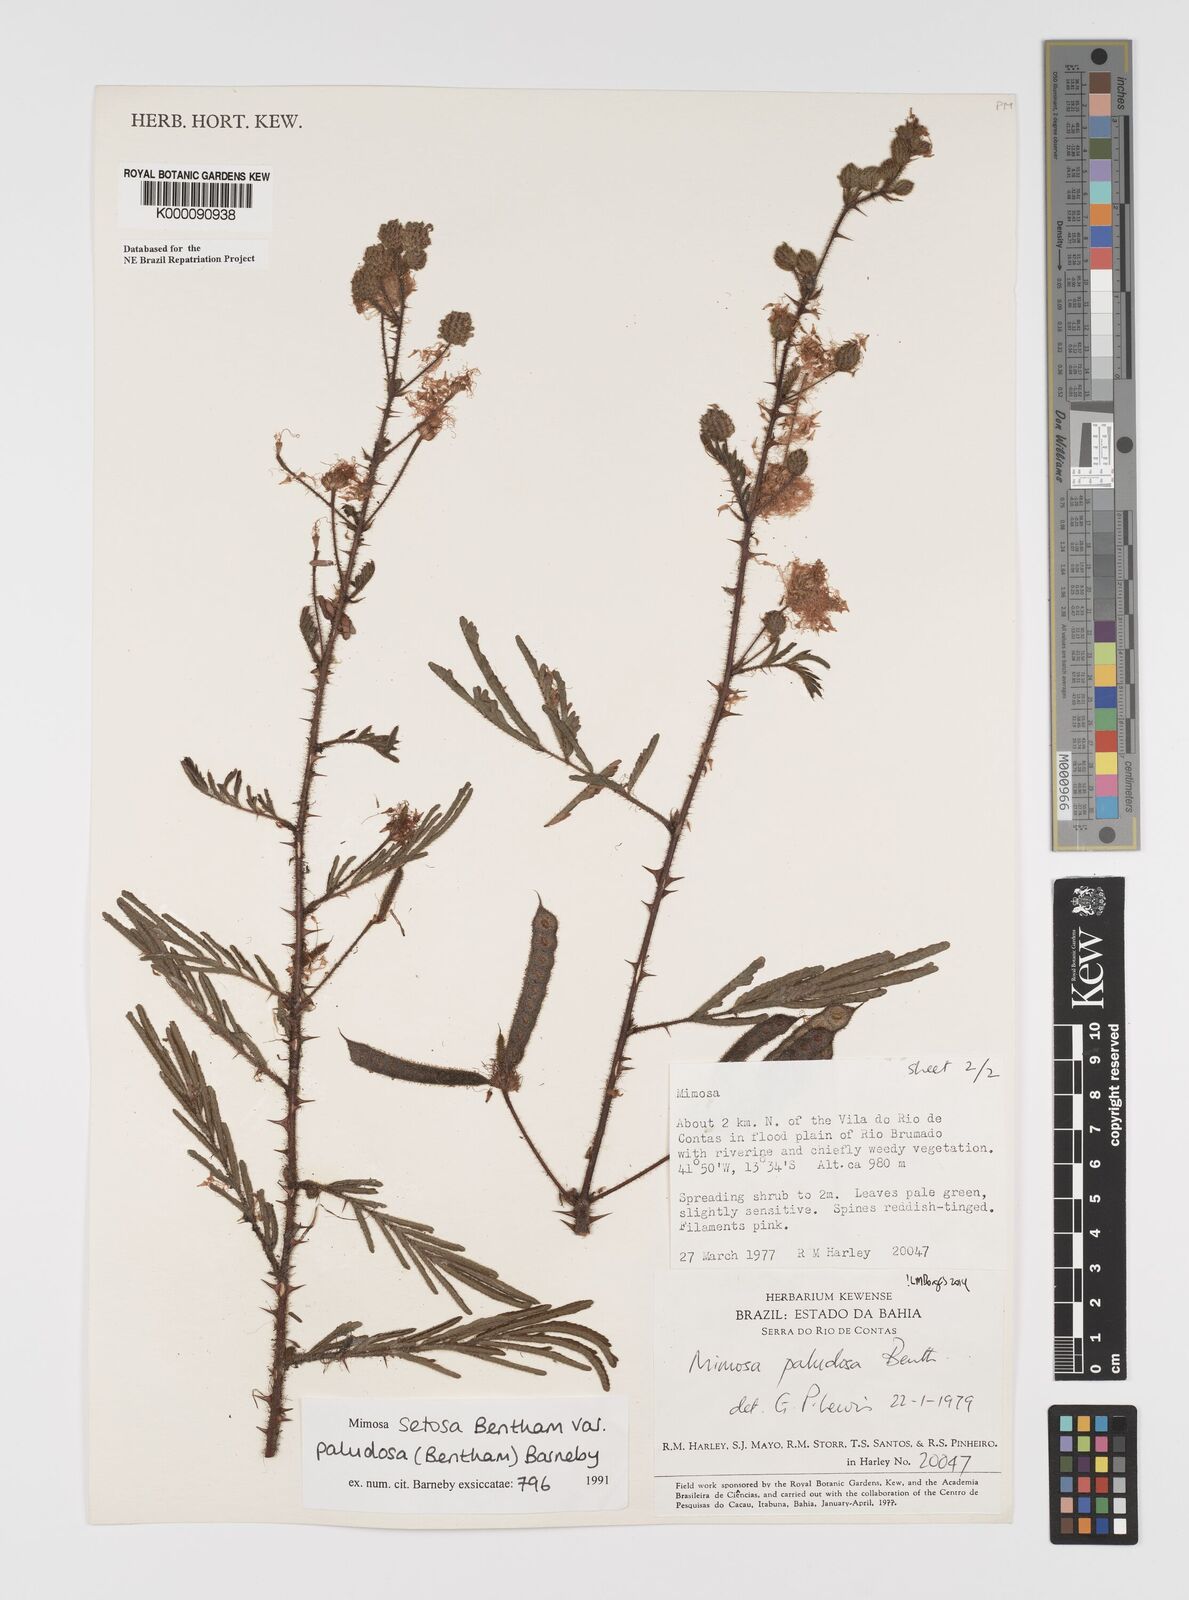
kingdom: Plantae
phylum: Tracheophyta
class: Magnoliopsida
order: Fabales
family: Fabaceae
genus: Mimosa
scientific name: Mimosa paludosa
